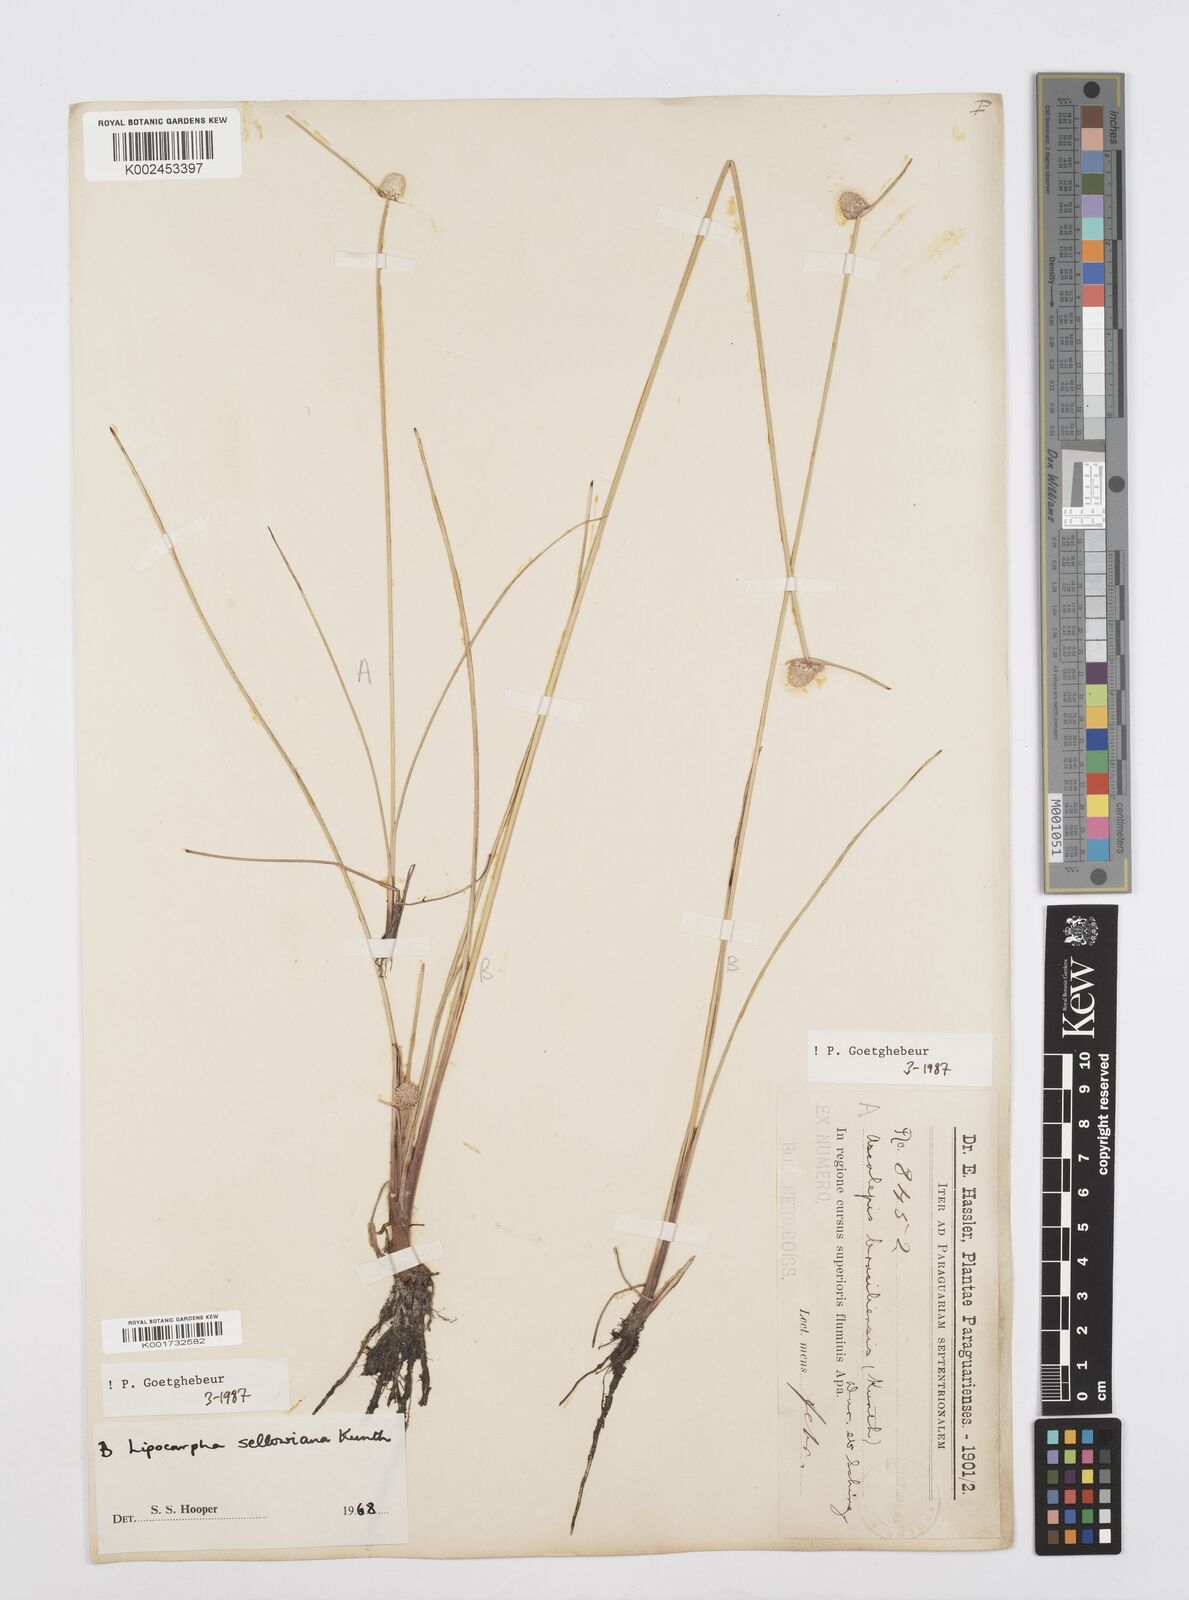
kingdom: Plantae
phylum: Tracheophyta
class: Liliopsida
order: Poales
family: Cyperaceae
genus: Cyperus
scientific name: Cyperus lanceolatus
